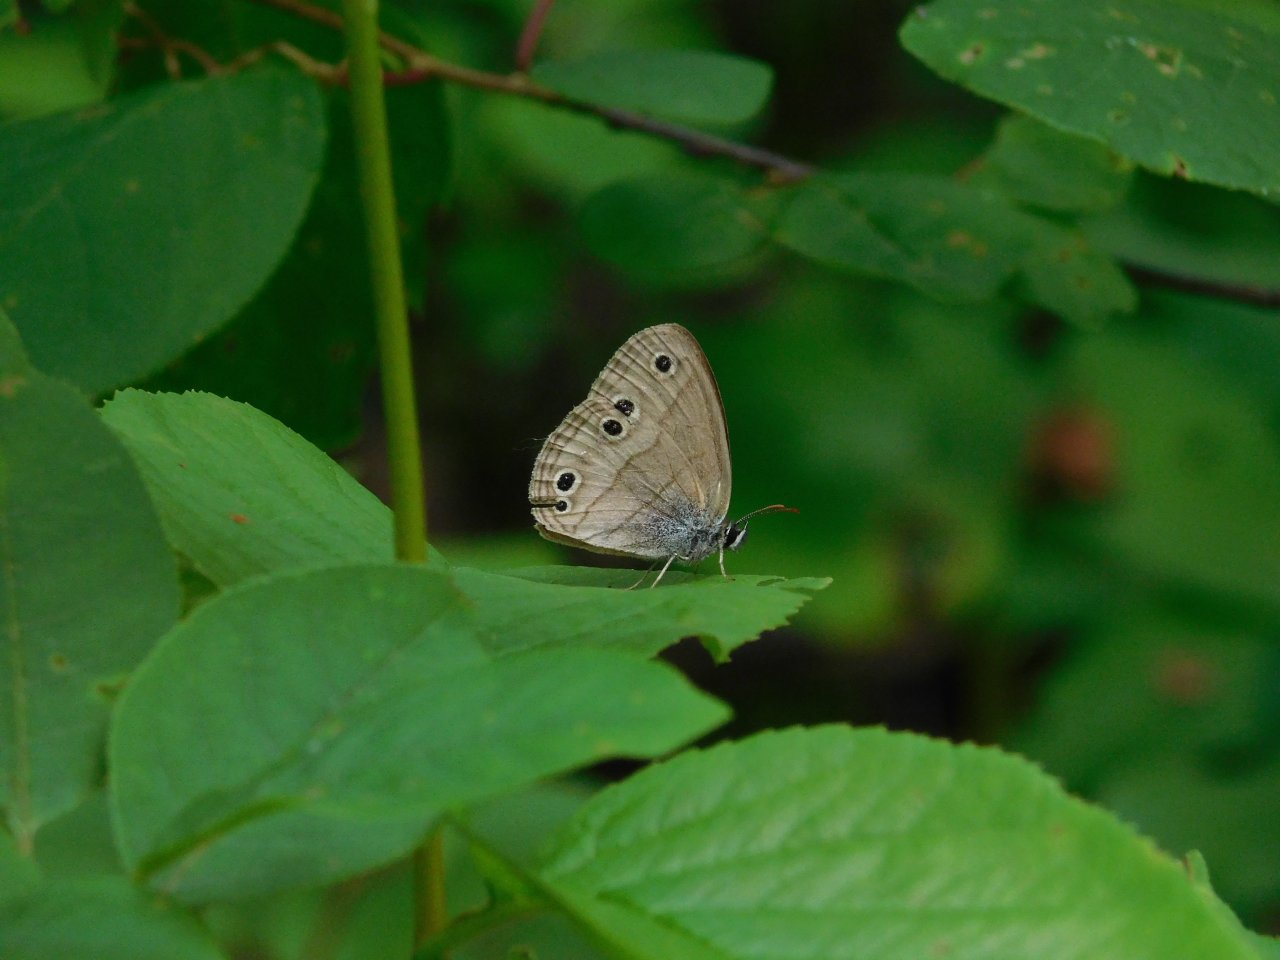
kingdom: Animalia
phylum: Arthropoda
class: Insecta
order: Lepidoptera
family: Nymphalidae
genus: Euptychia
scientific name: Euptychia cymela
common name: Little Wood Satyr
